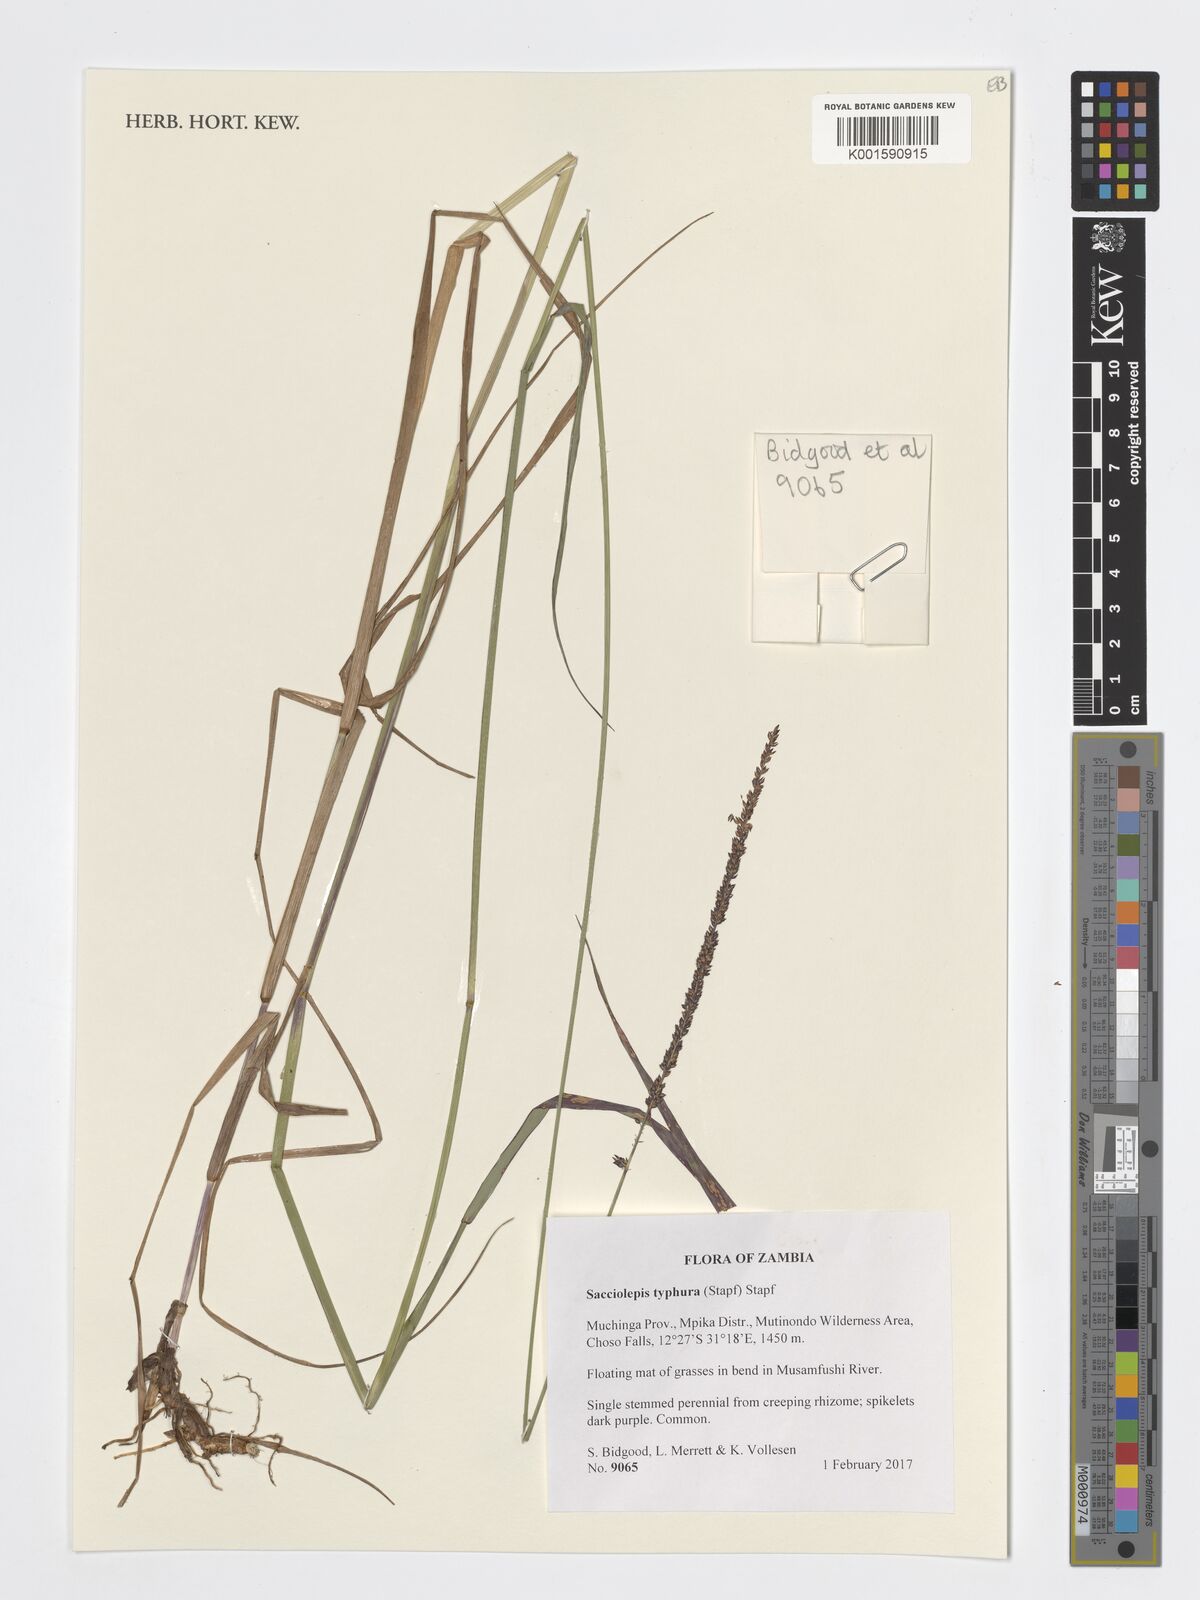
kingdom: Plantae
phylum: Tracheophyta
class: Liliopsida
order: Poales
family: Poaceae
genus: Sacciolepis
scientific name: Sacciolepis typhura
